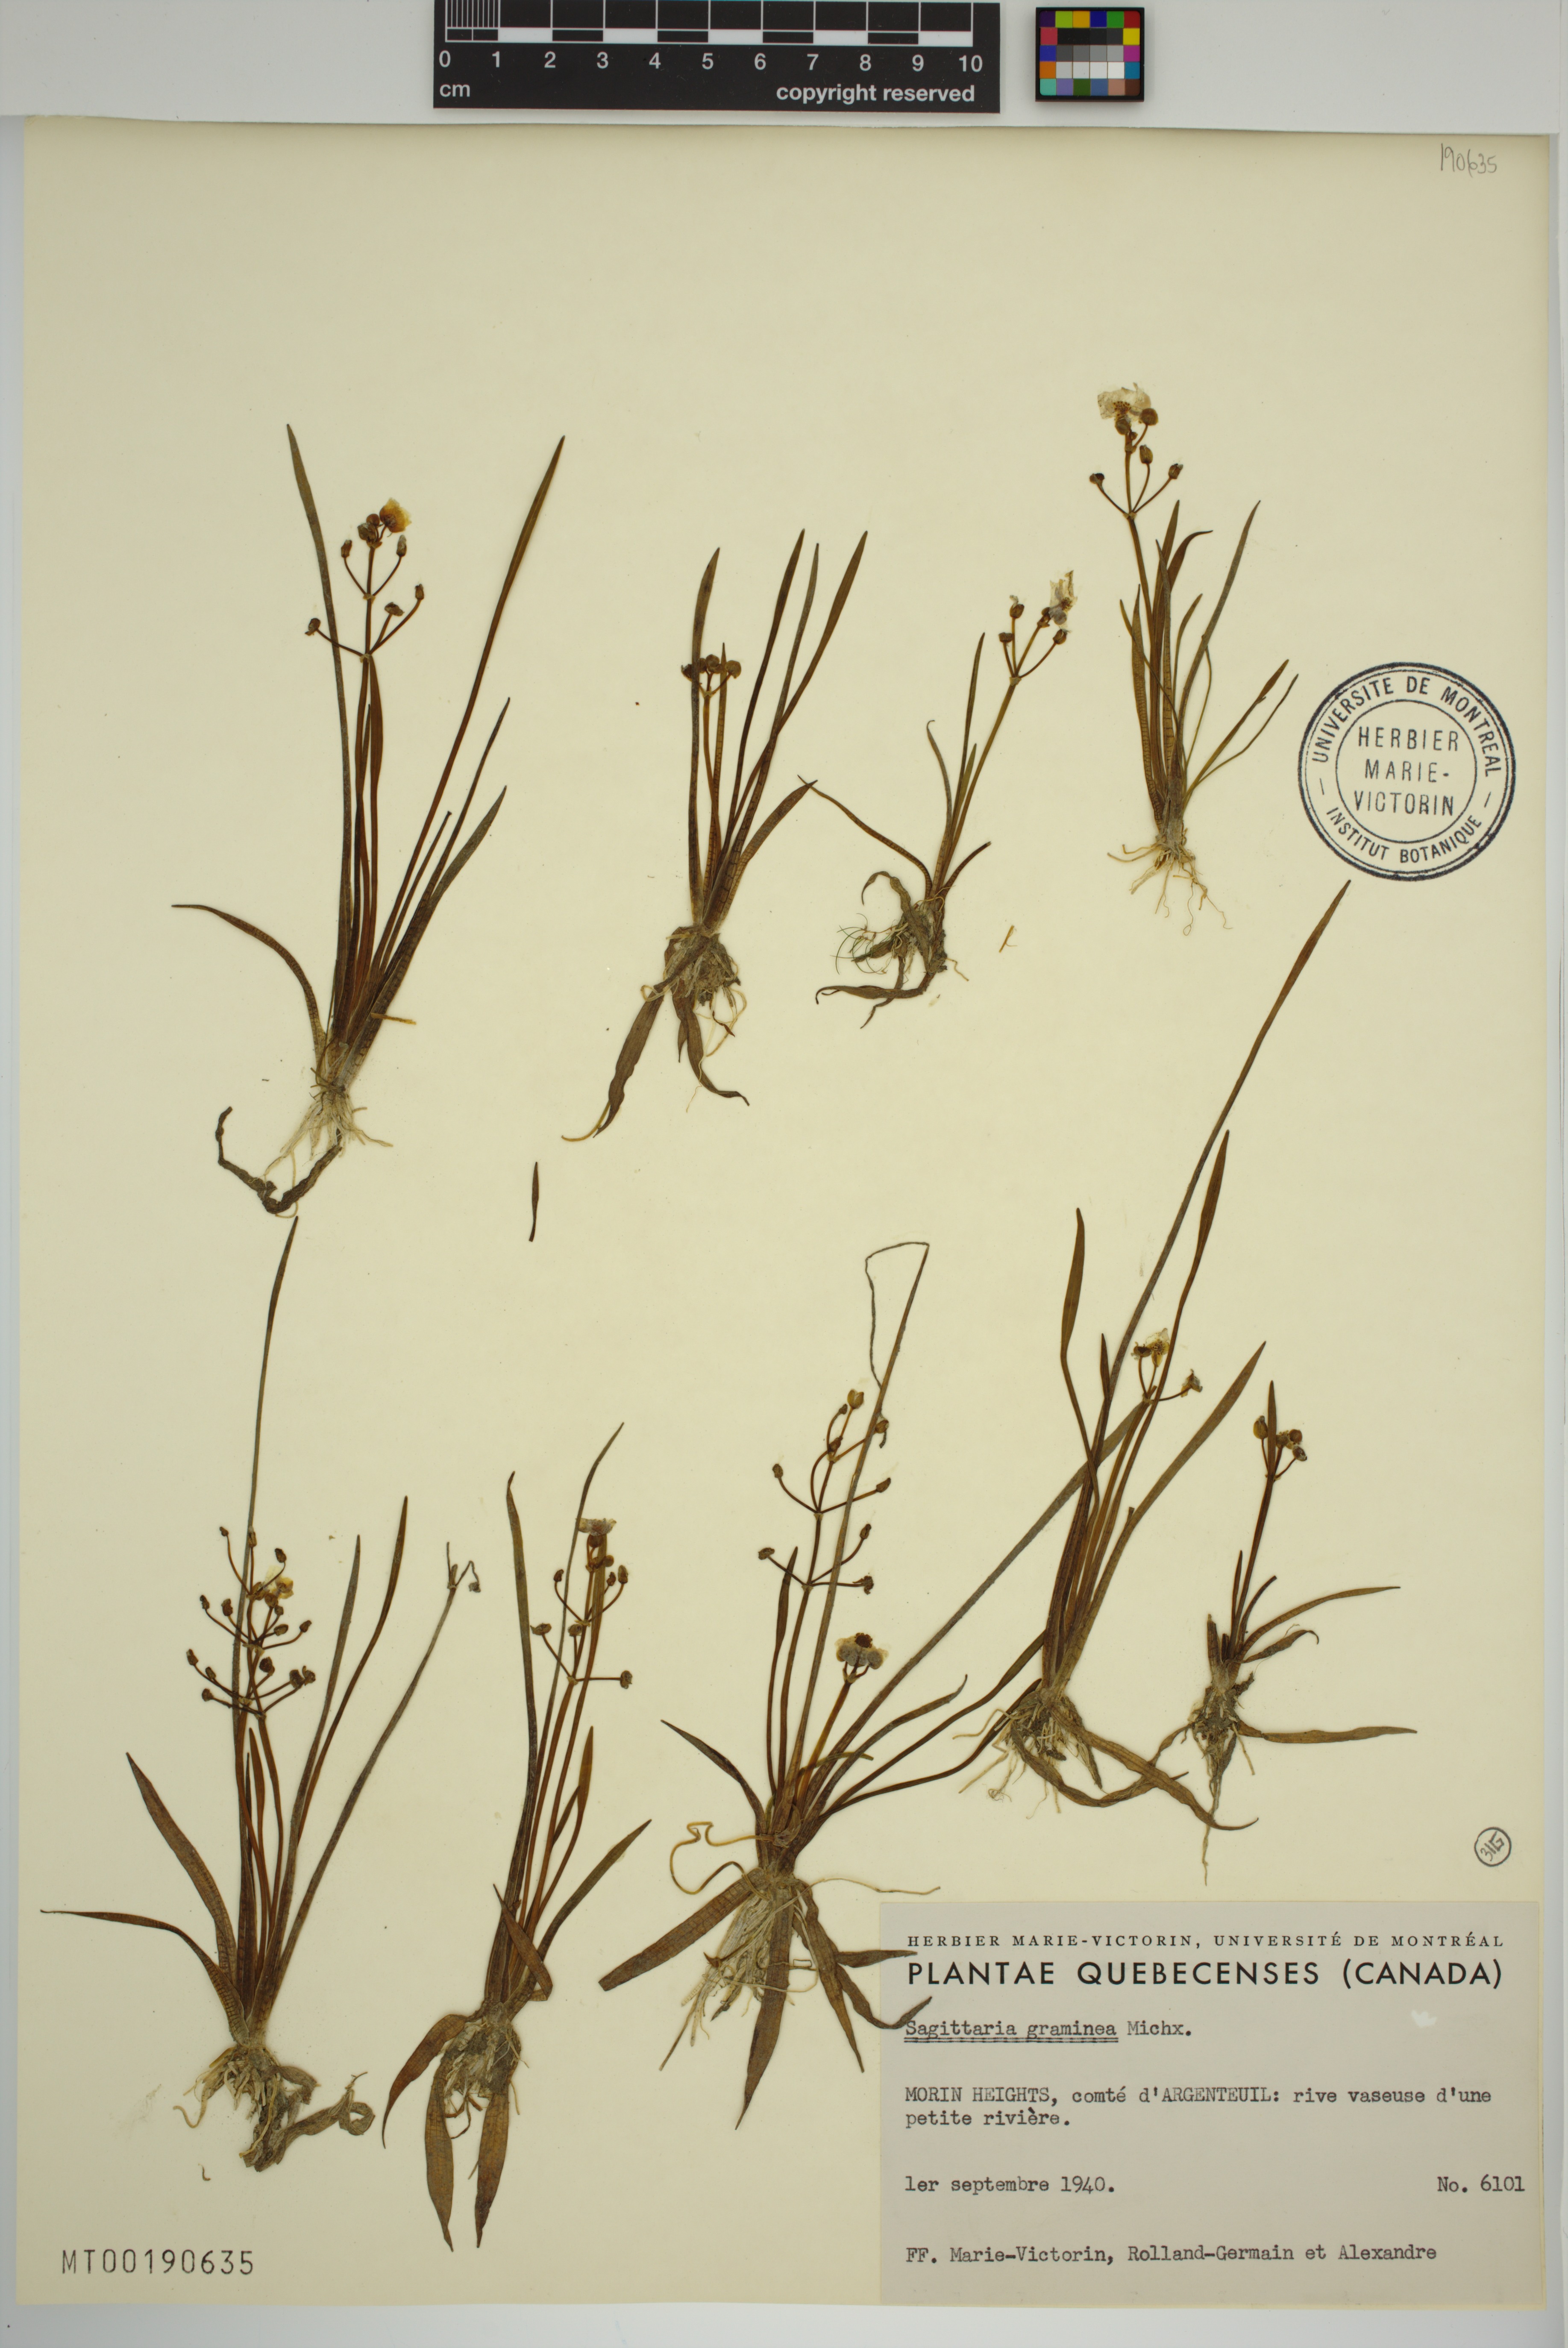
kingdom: Plantae
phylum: Tracheophyta
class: Liliopsida
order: Alismatales
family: Alismataceae
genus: Sagittaria
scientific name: Sagittaria graminea
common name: Grass-leaved arrowhead
